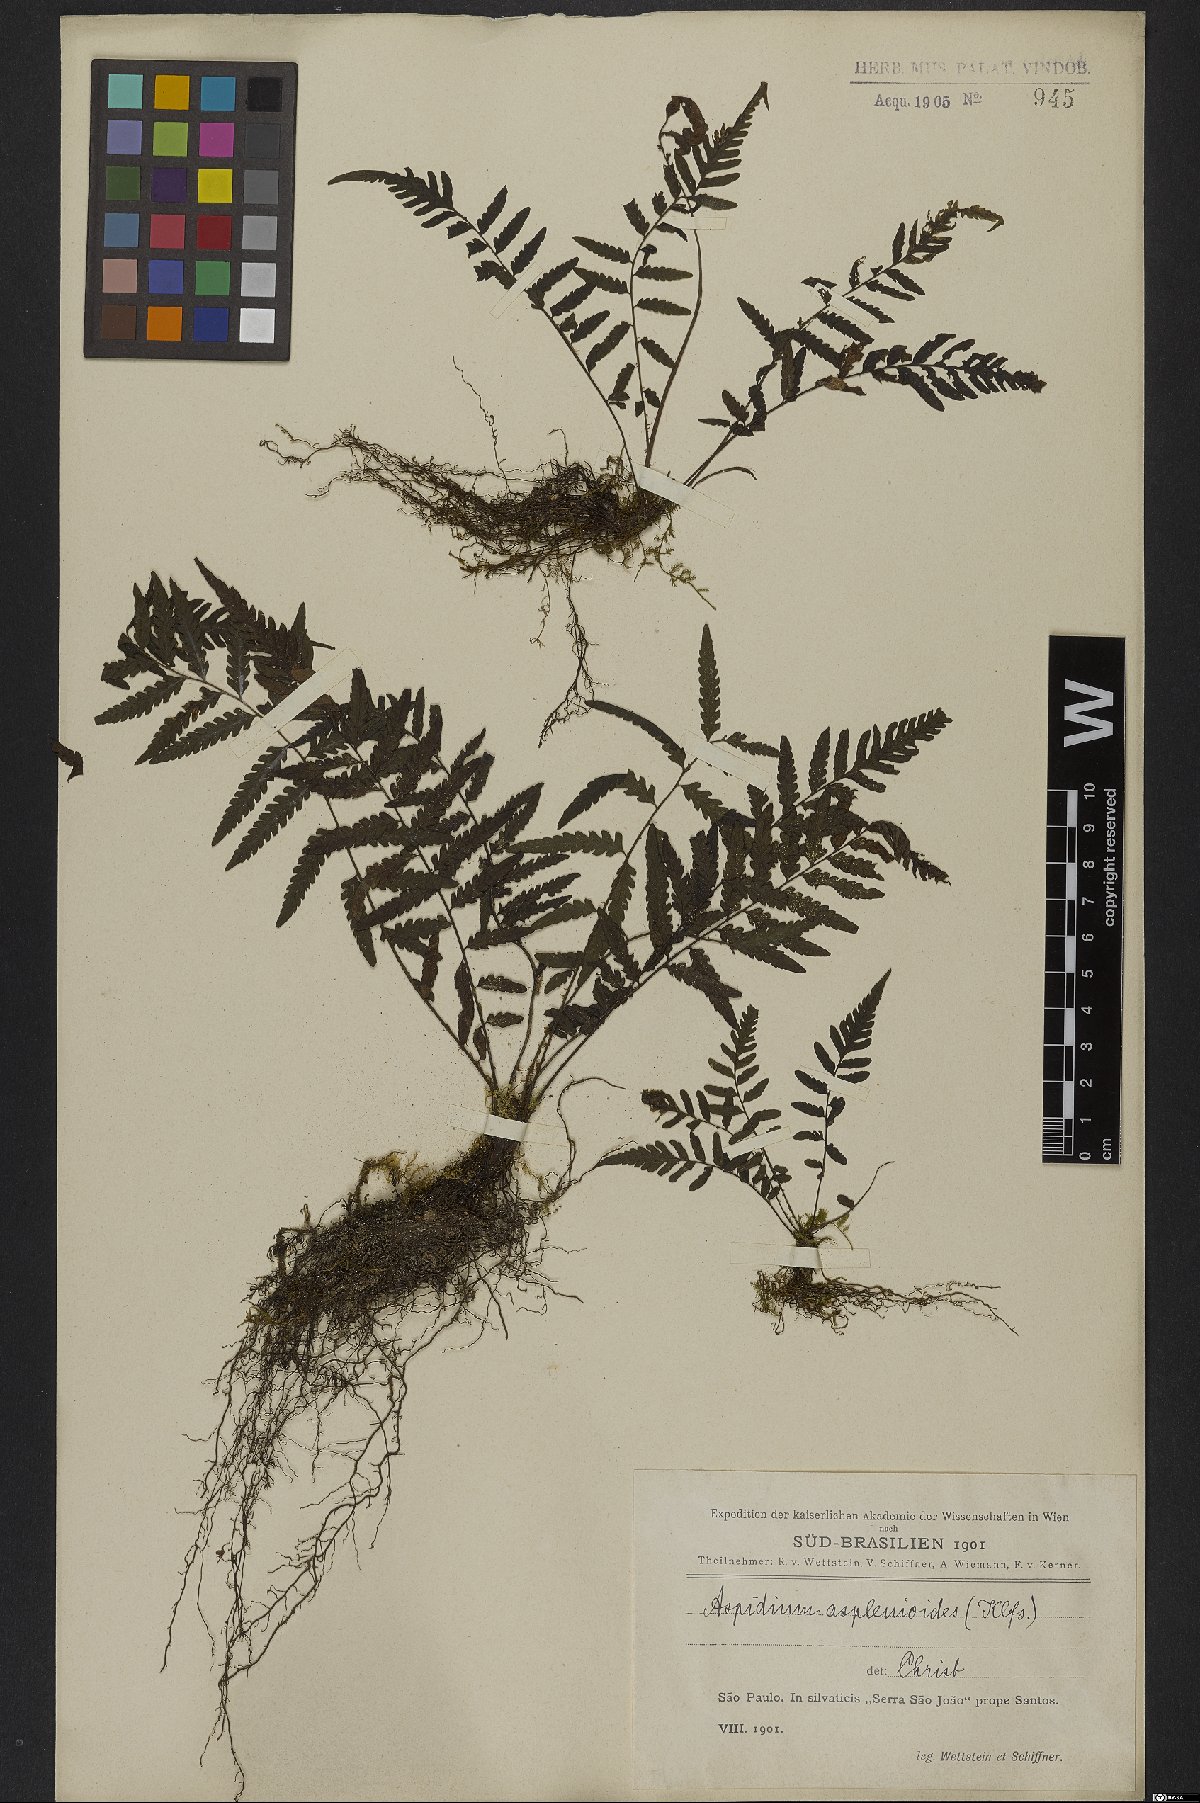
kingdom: Plantae
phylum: Tracheophyta
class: Polypodiopsida
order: Polypodiales
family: Thelypteridaceae
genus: Amauropelta
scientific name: Amauropelta aspidioides
